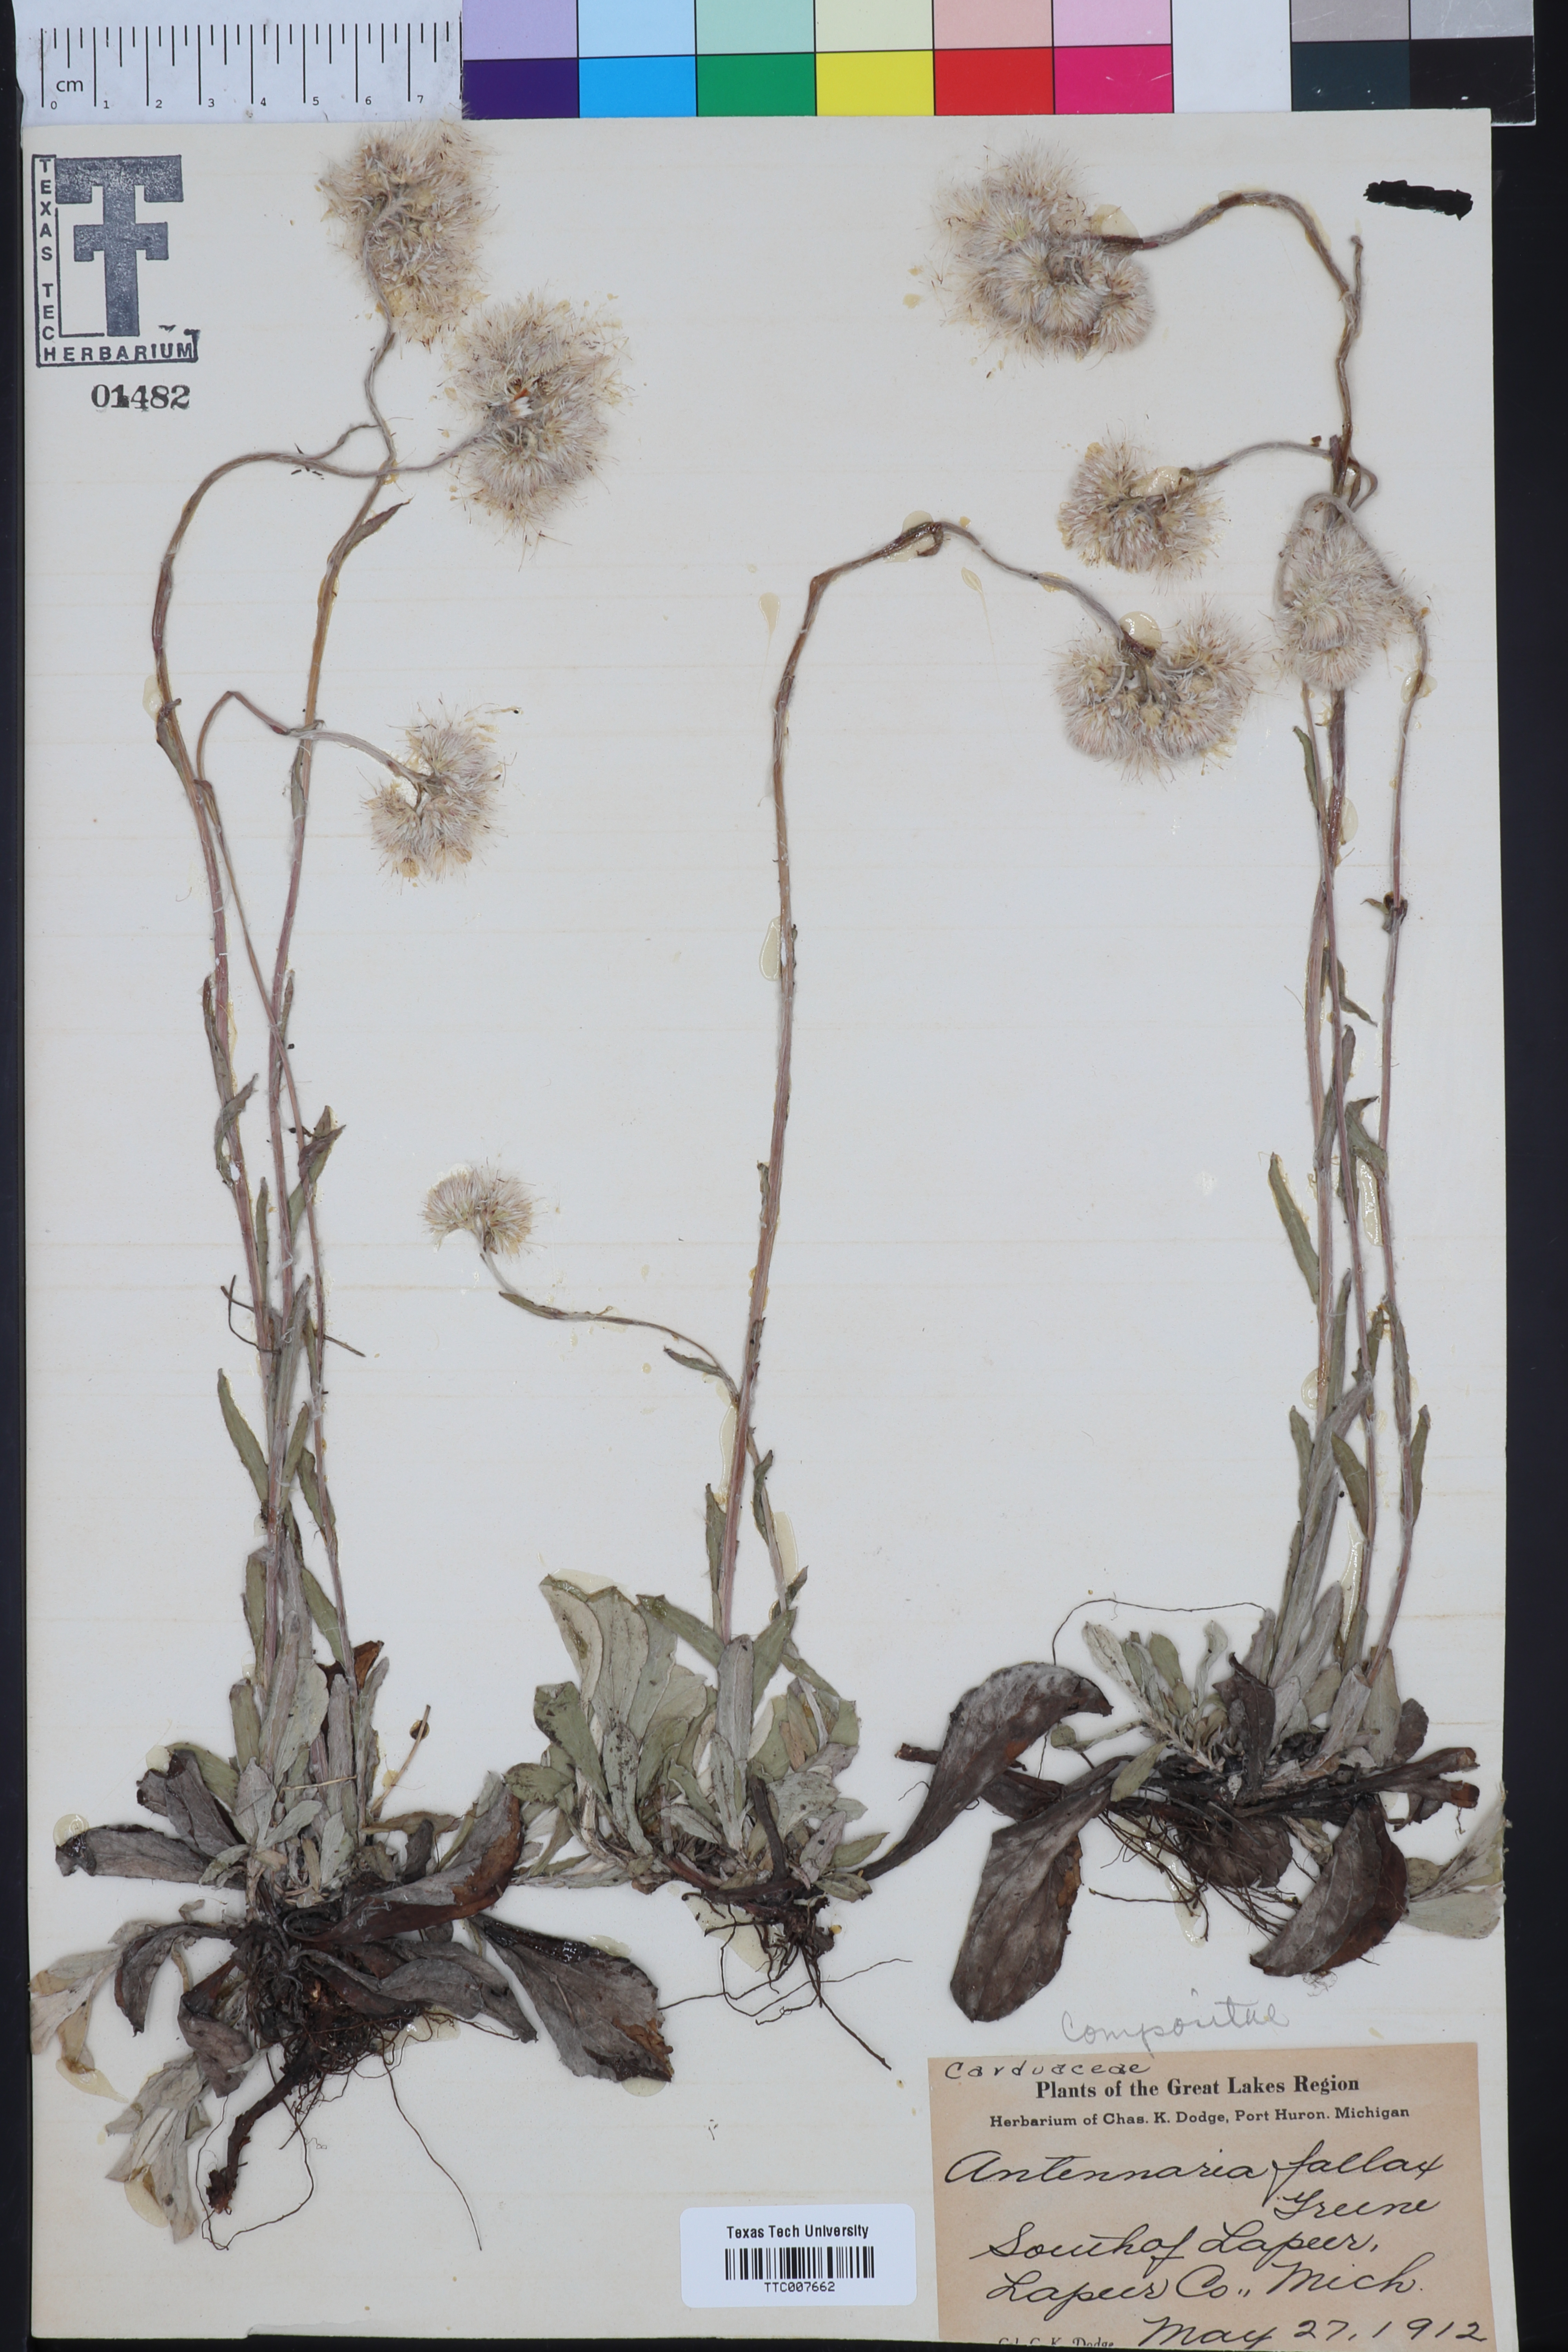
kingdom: Plantae
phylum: Tracheophyta
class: Magnoliopsida
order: Asterales
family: Asteraceae
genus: Antennaria
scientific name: Antennaria parlinii
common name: Parlin's pussytoes
